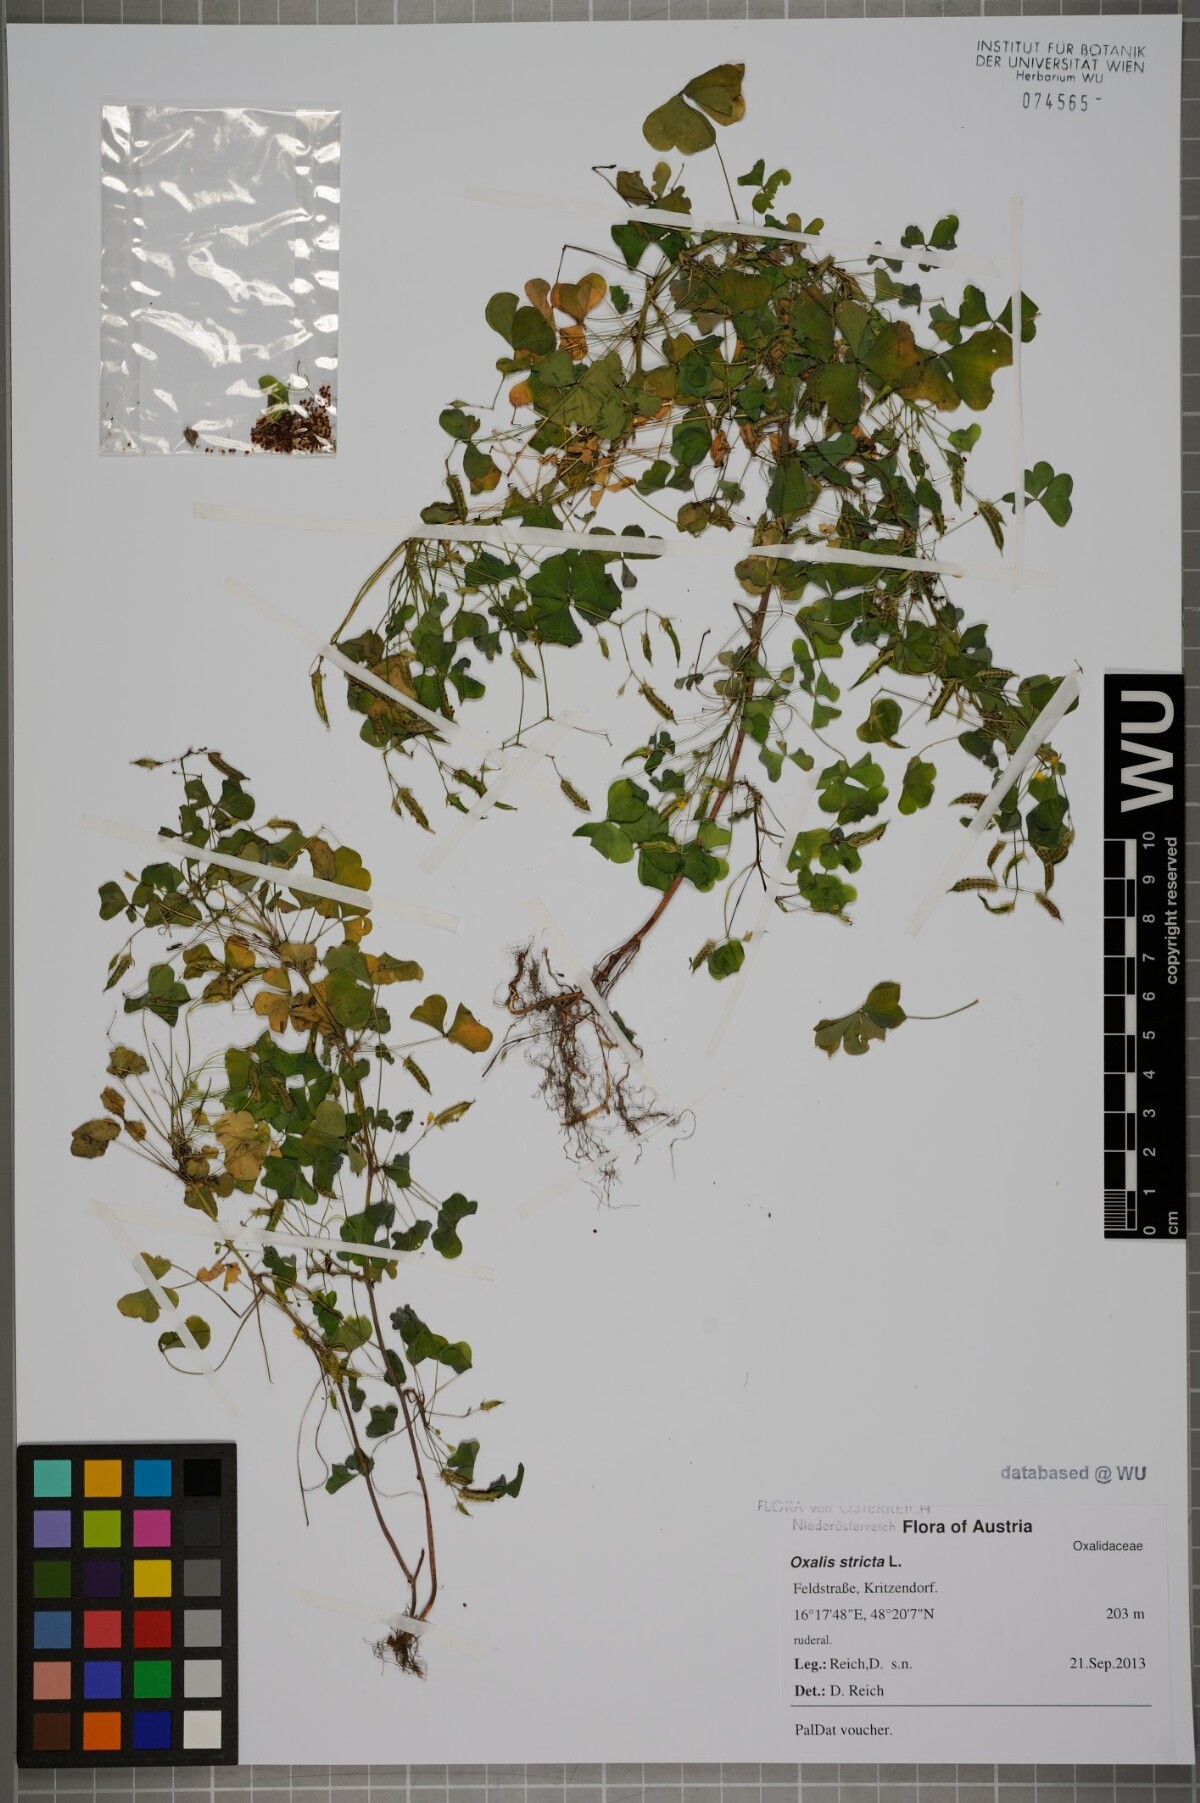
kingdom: Plantae
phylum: Tracheophyta
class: Magnoliopsida
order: Oxalidales
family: Oxalidaceae
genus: Oxalis
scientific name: Oxalis stricta
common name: Upright yellow-sorrel
